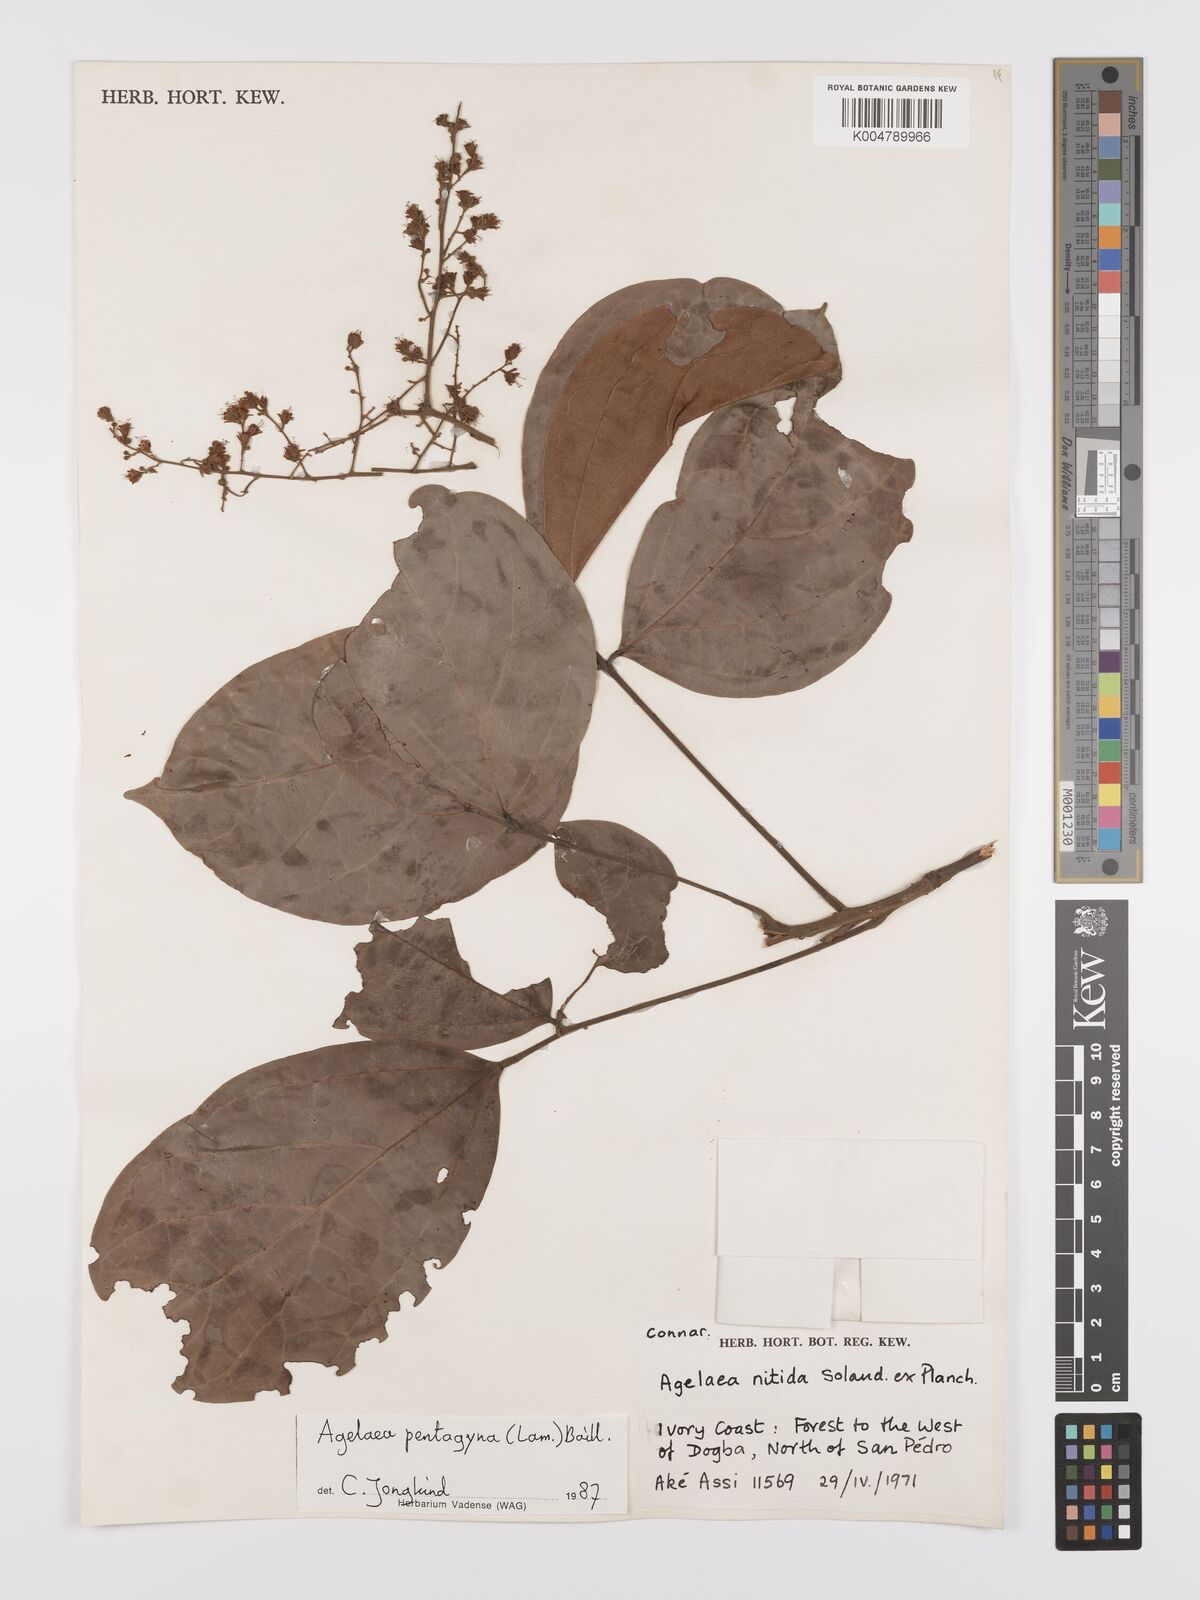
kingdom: Plantae
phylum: Tracheophyta
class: Magnoliopsida
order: Oxalidales
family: Connaraceae
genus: Agelaea
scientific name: Agelaea pentagyna
